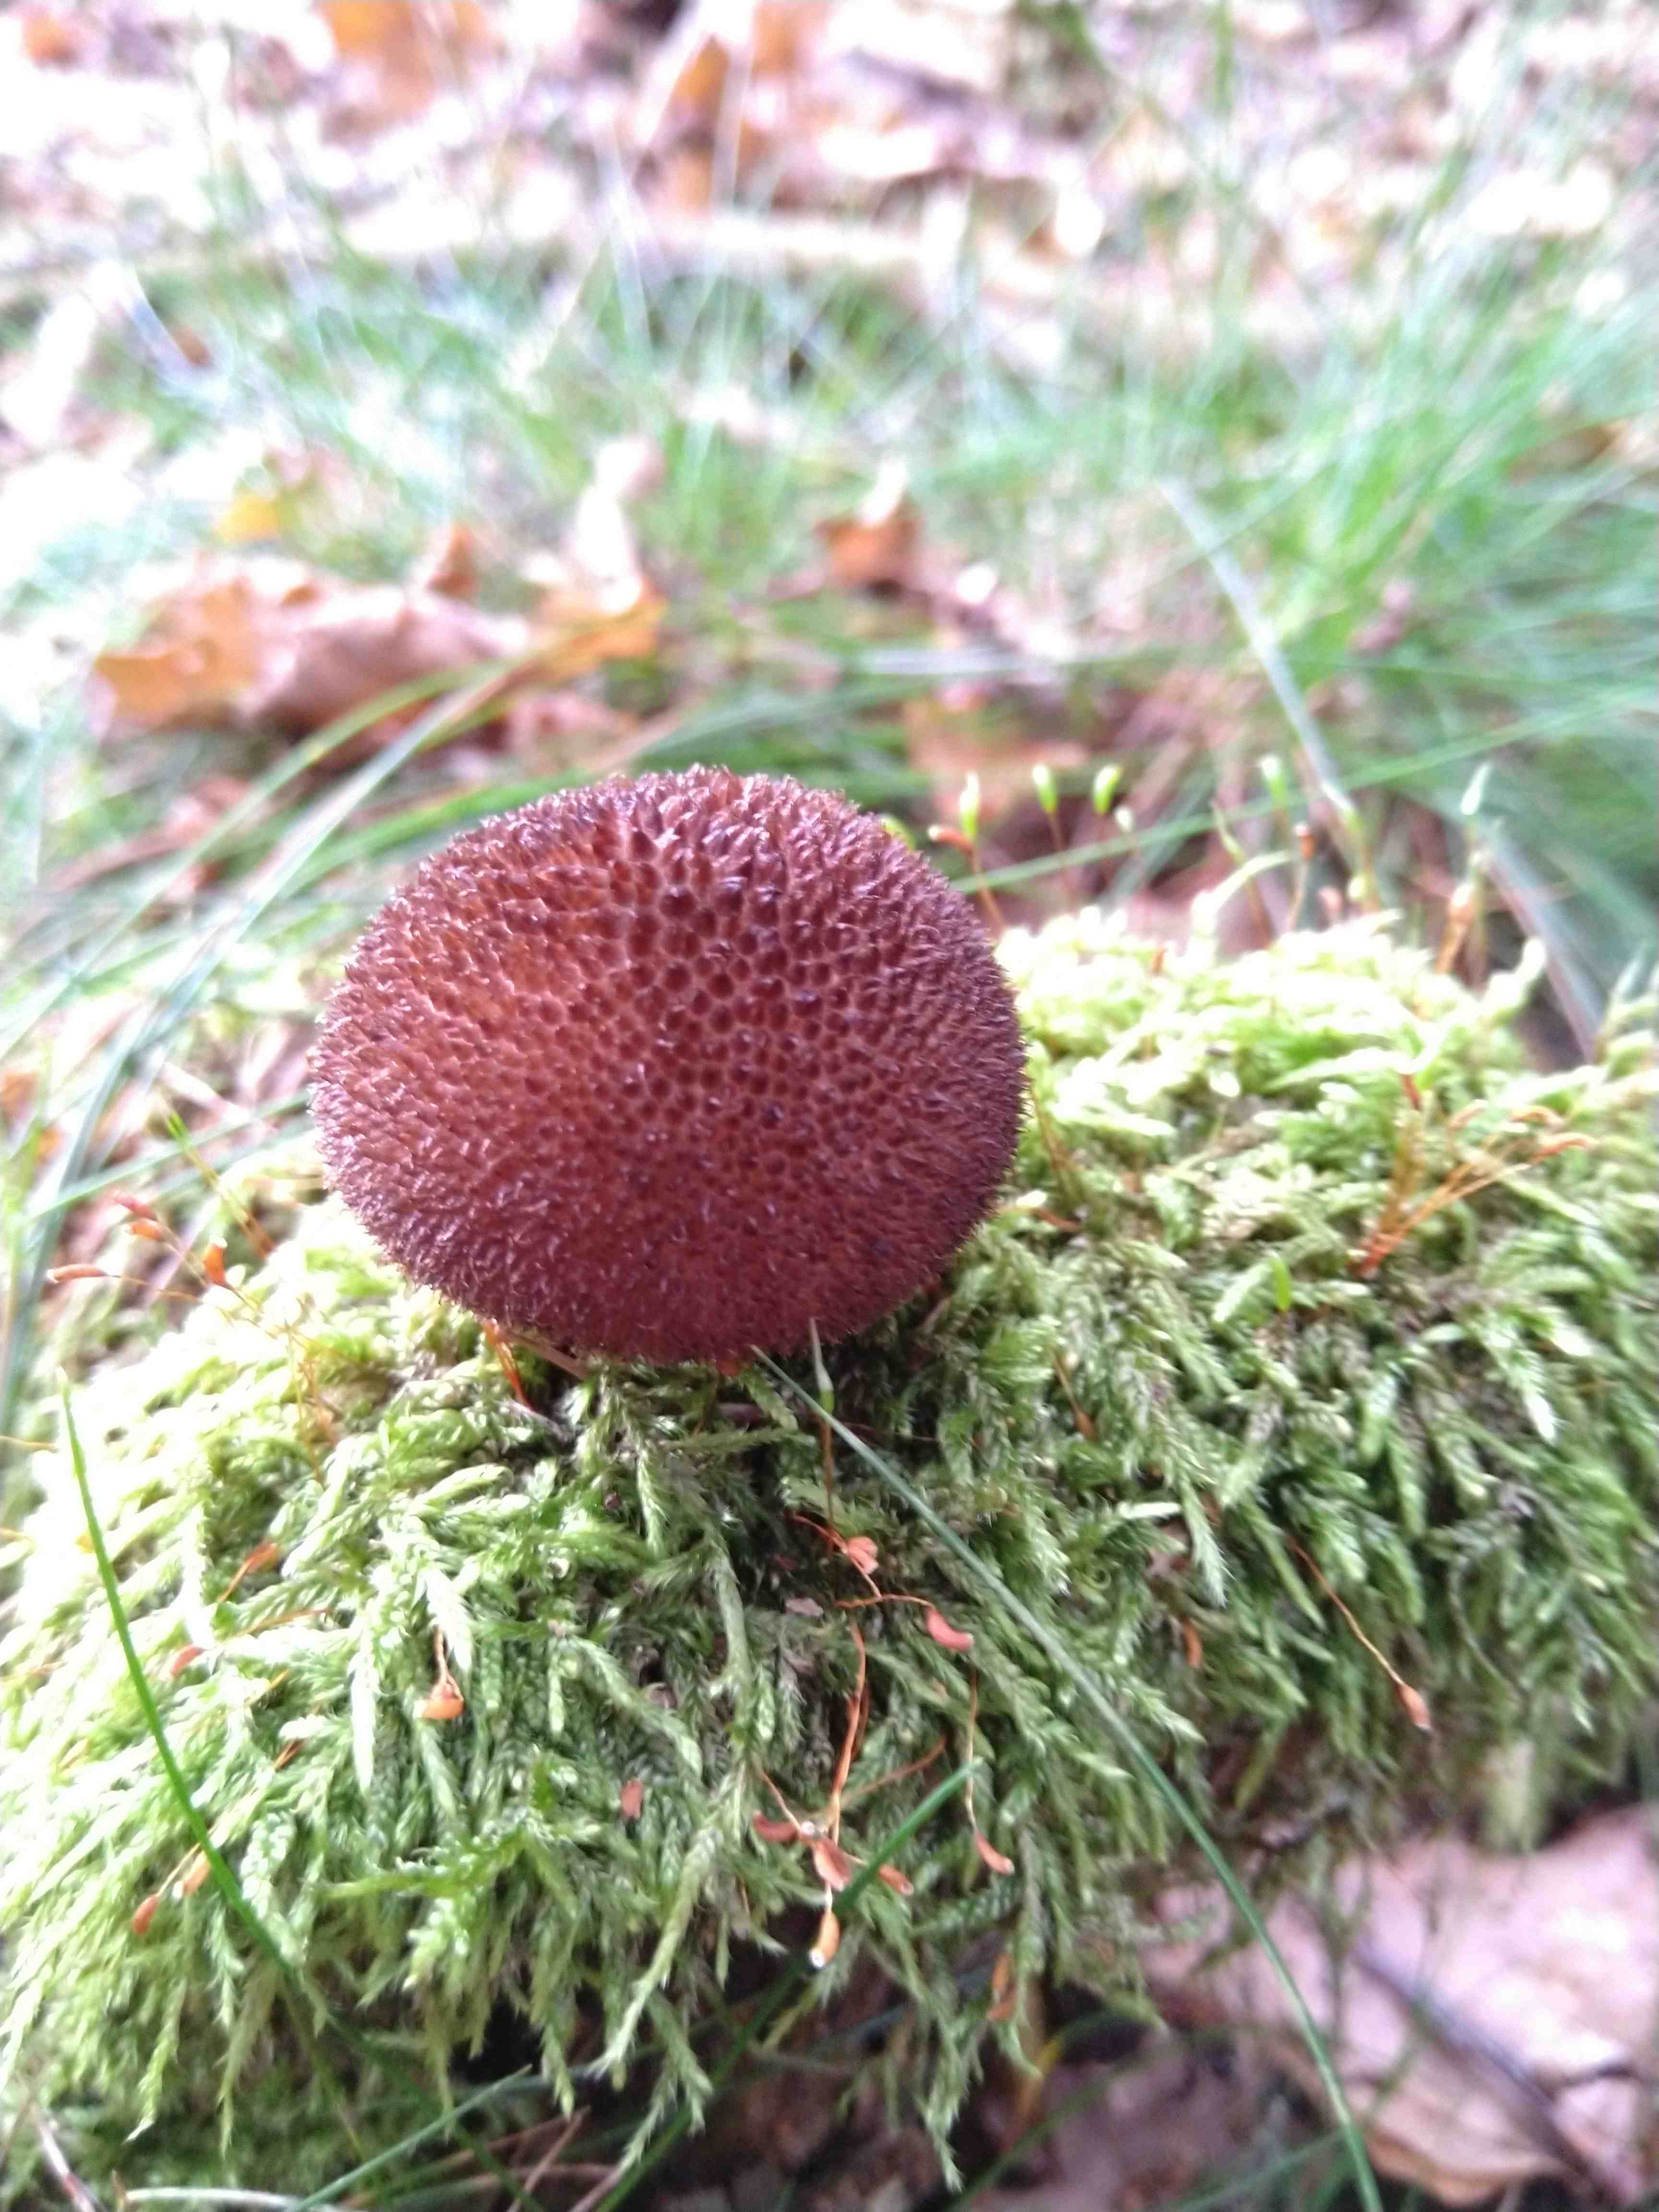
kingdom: Fungi
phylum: Basidiomycota
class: Agaricomycetes
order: Agaricales
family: Lycoperdaceae
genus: Lycoperdon
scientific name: Lycoperdon nigrescens
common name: sortagtig støvbold
